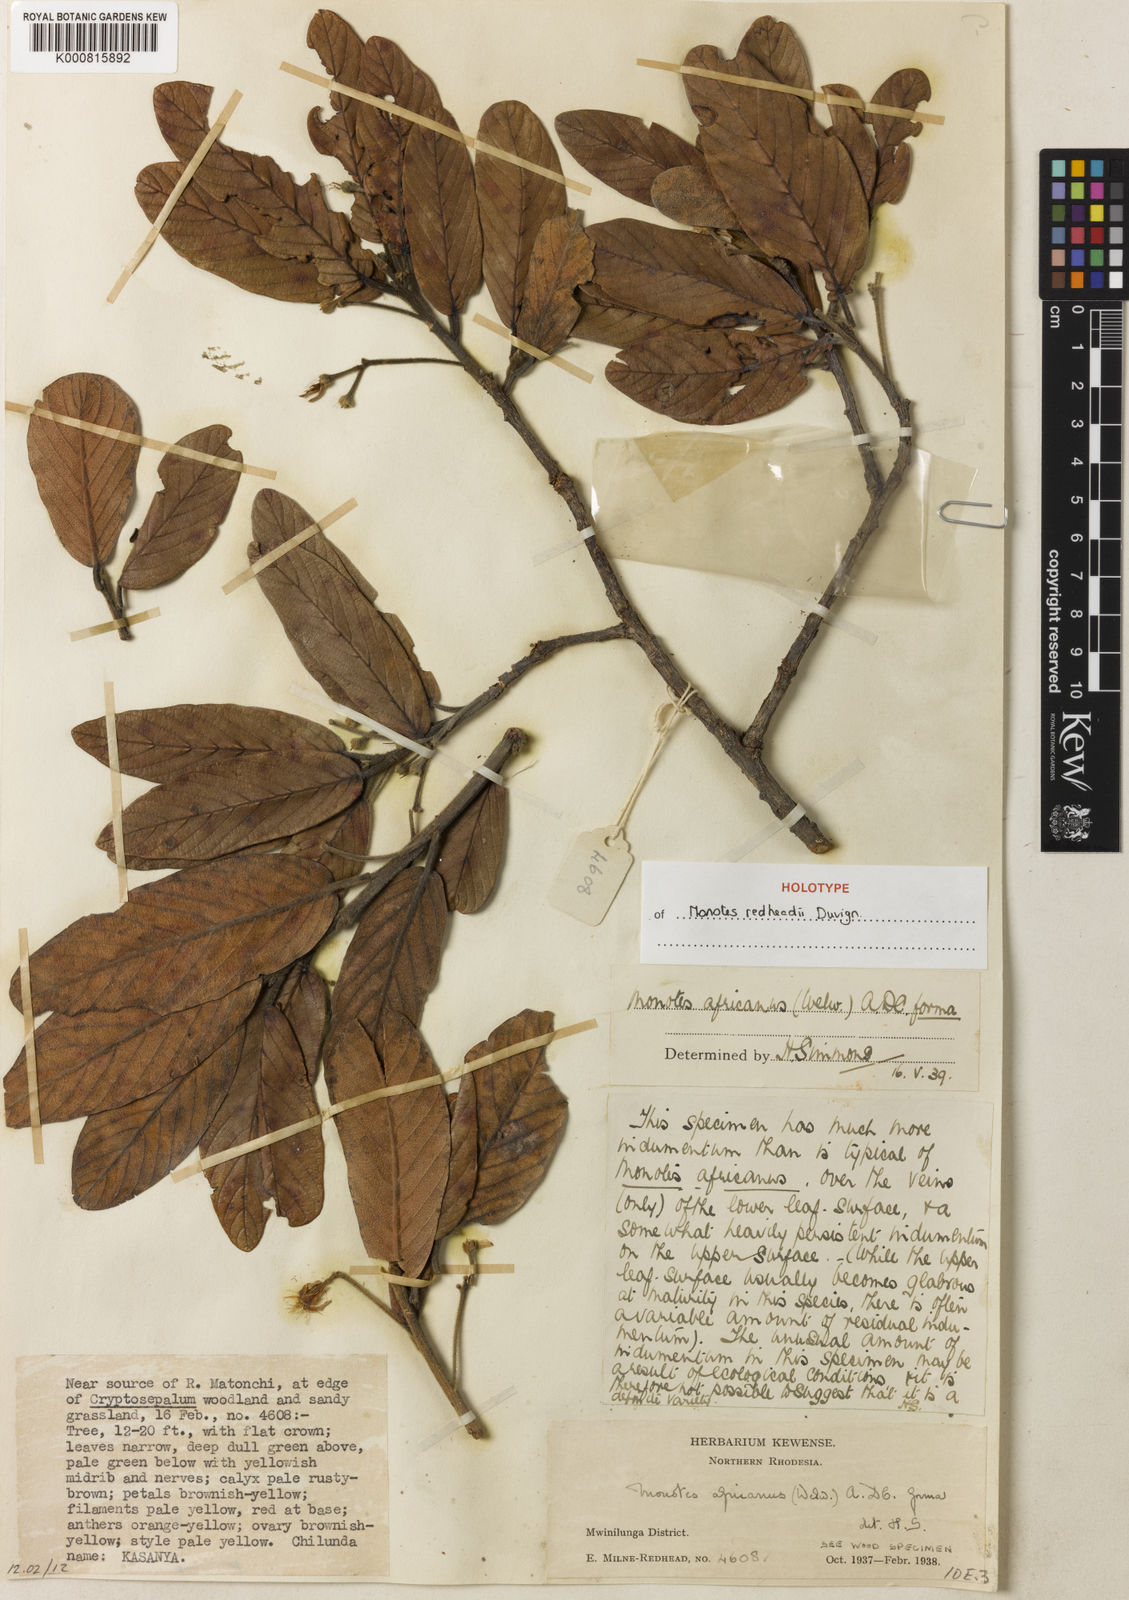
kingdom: Plantae
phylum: Tracheophyta
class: Magnoliopsida
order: Malvales
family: Dipterocarpaceae
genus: Monotes
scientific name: Monotes redheadii
